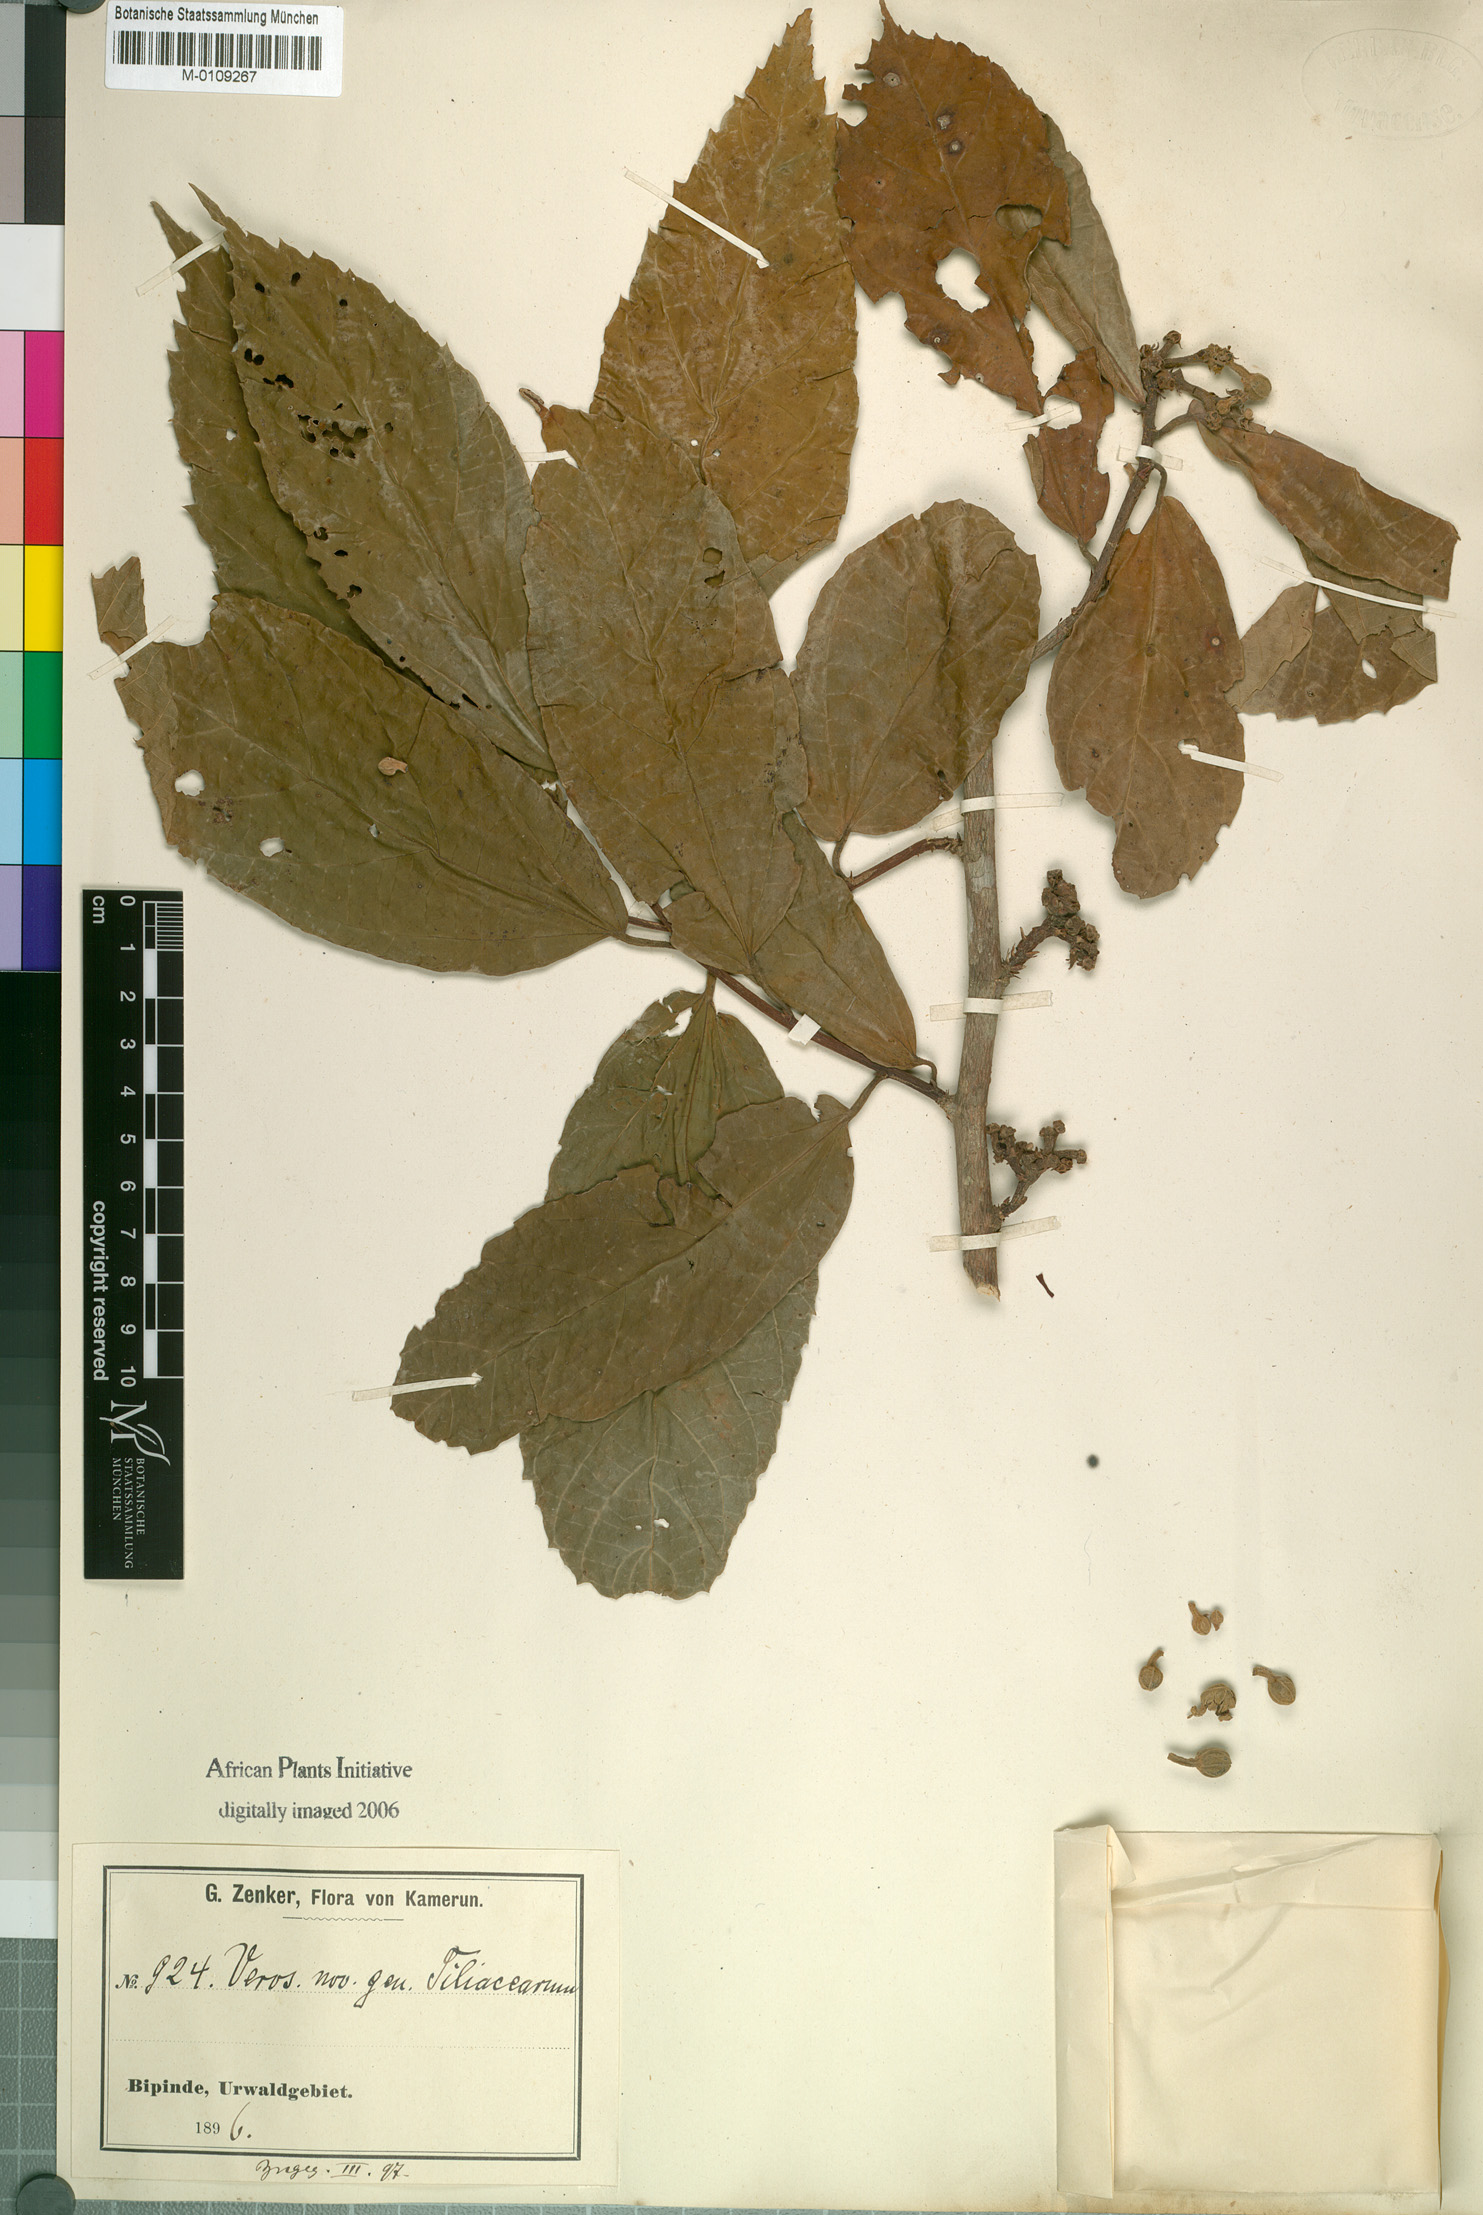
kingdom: Plantae
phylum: Tracheophyta
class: Magnoliopsida
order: Malvales
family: Malvaceae
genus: Desplatsia
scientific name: Desplatsia dewevrei
